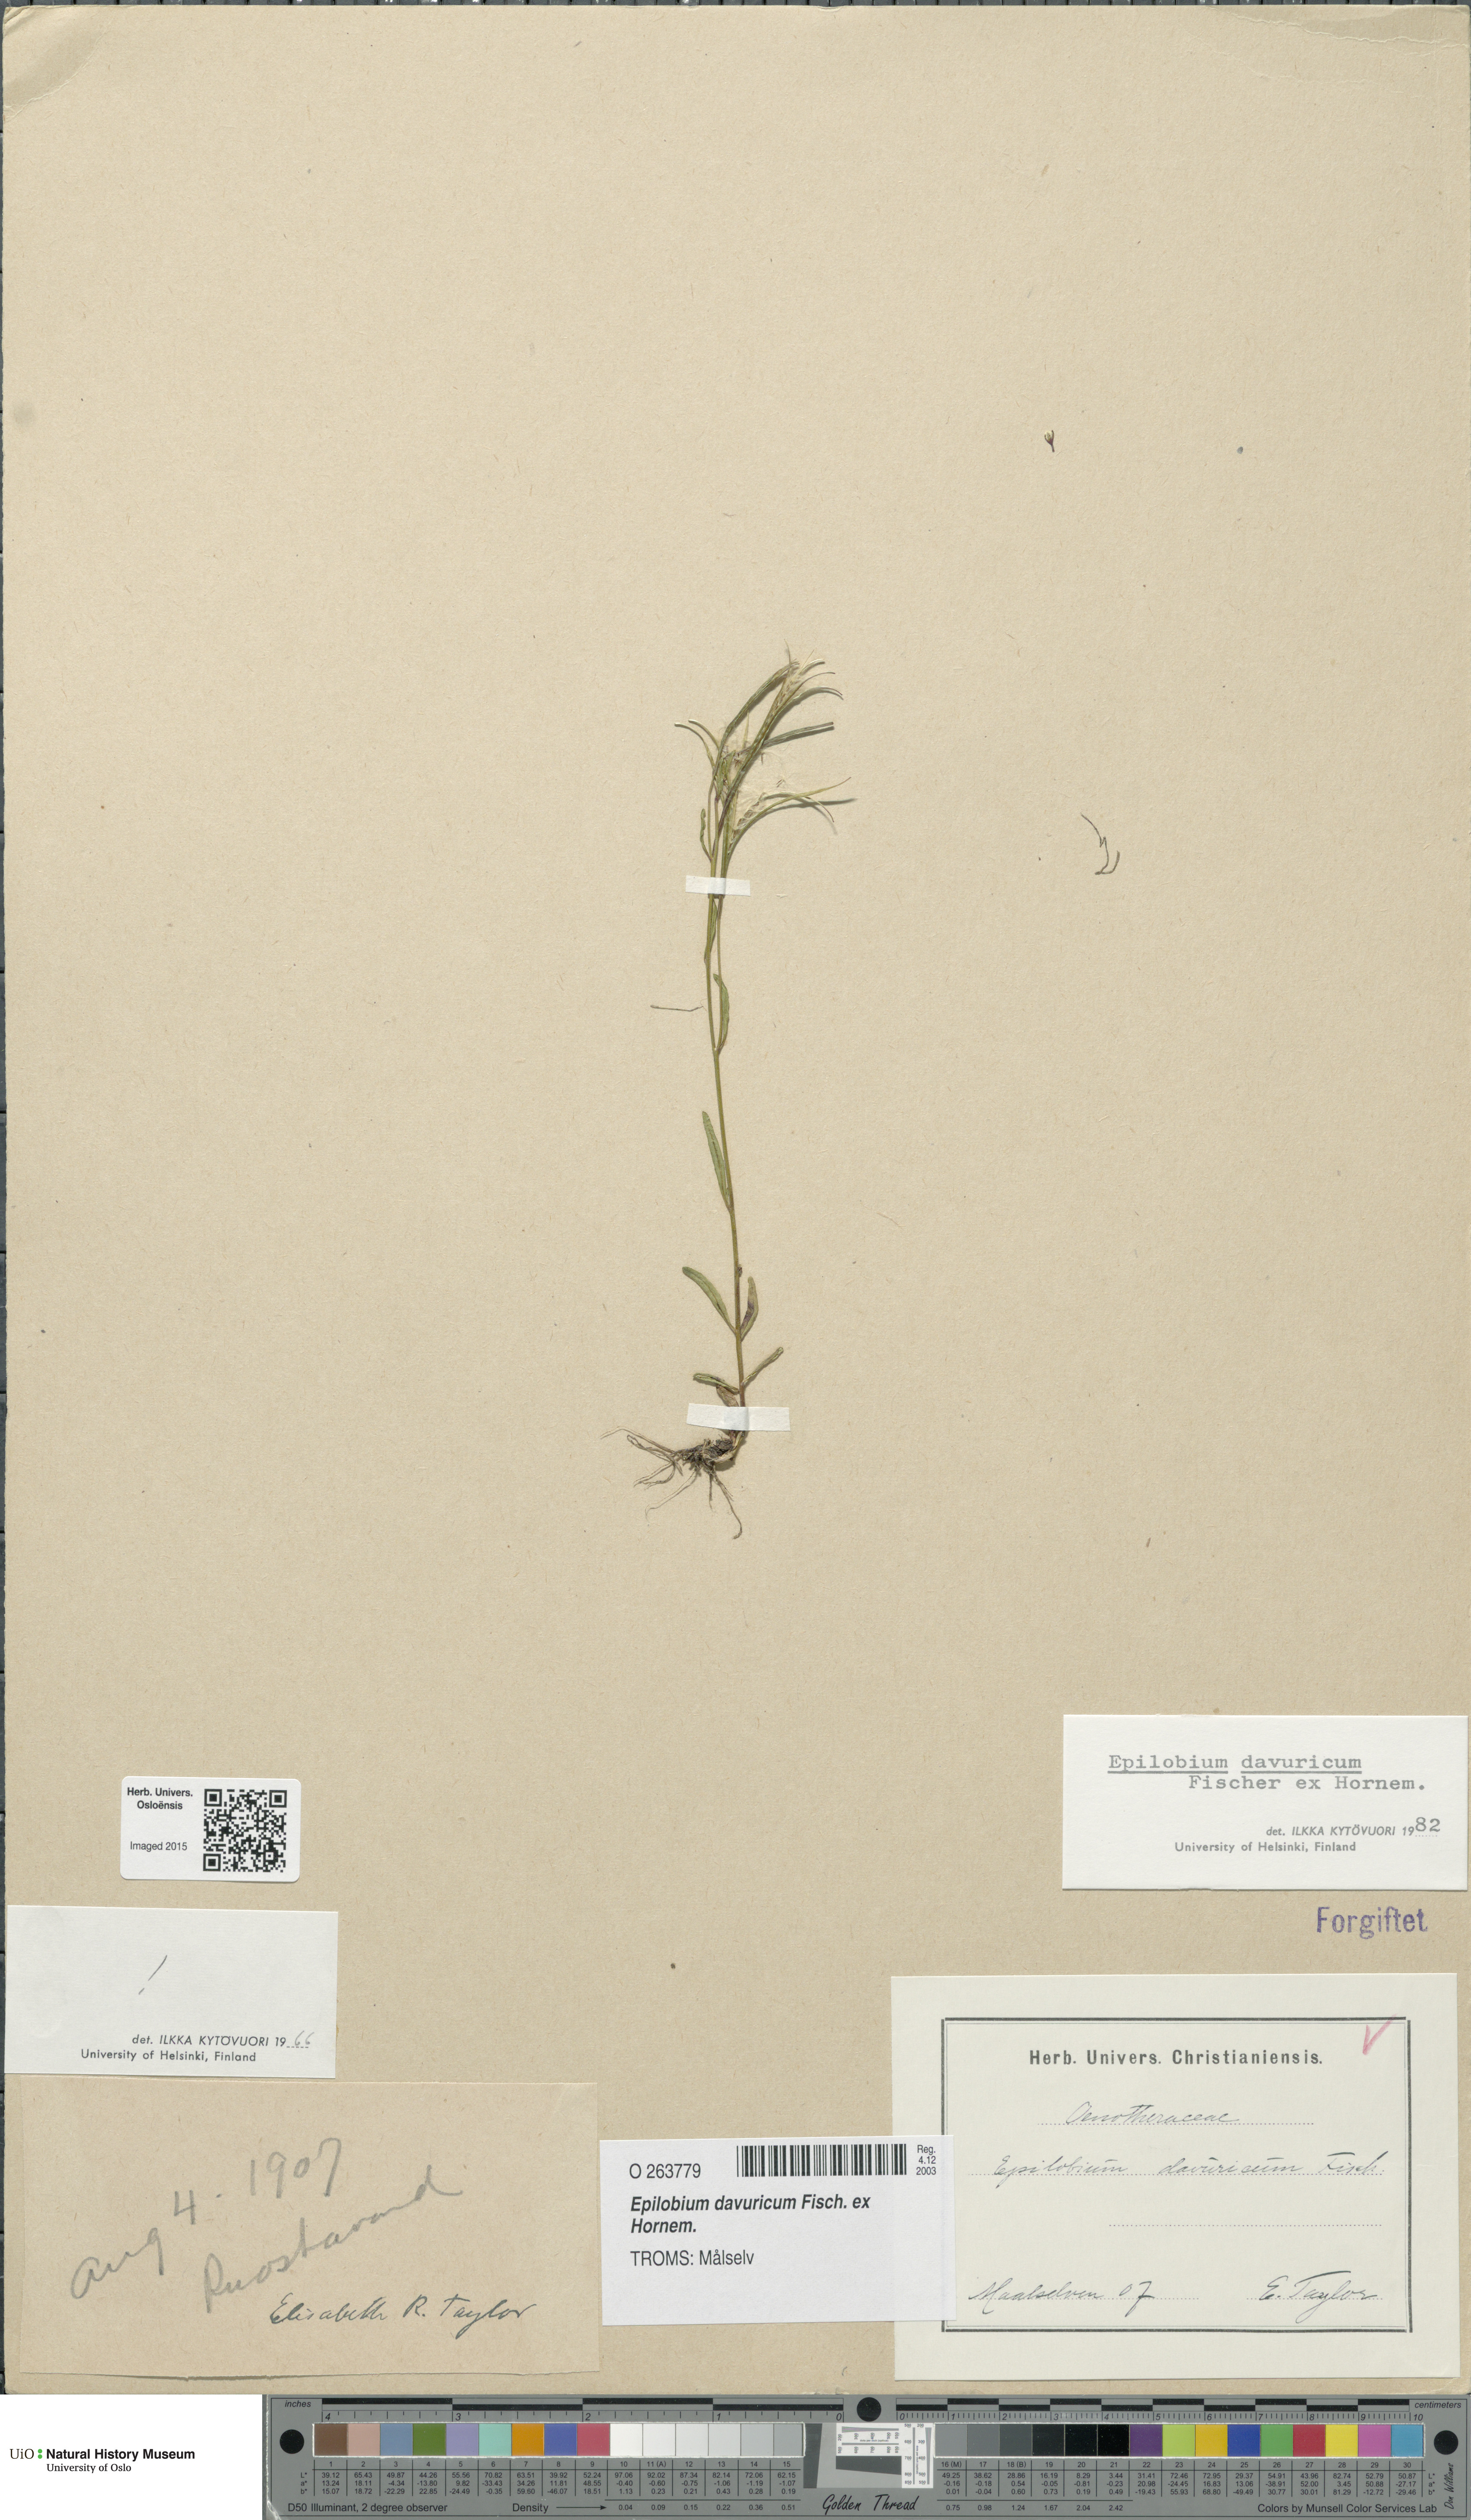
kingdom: Plantae
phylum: Tracheophyta
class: Magnoliopsida
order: Myrtales
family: Onagraceae
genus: Epilobium
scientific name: Epilobium davuricum
